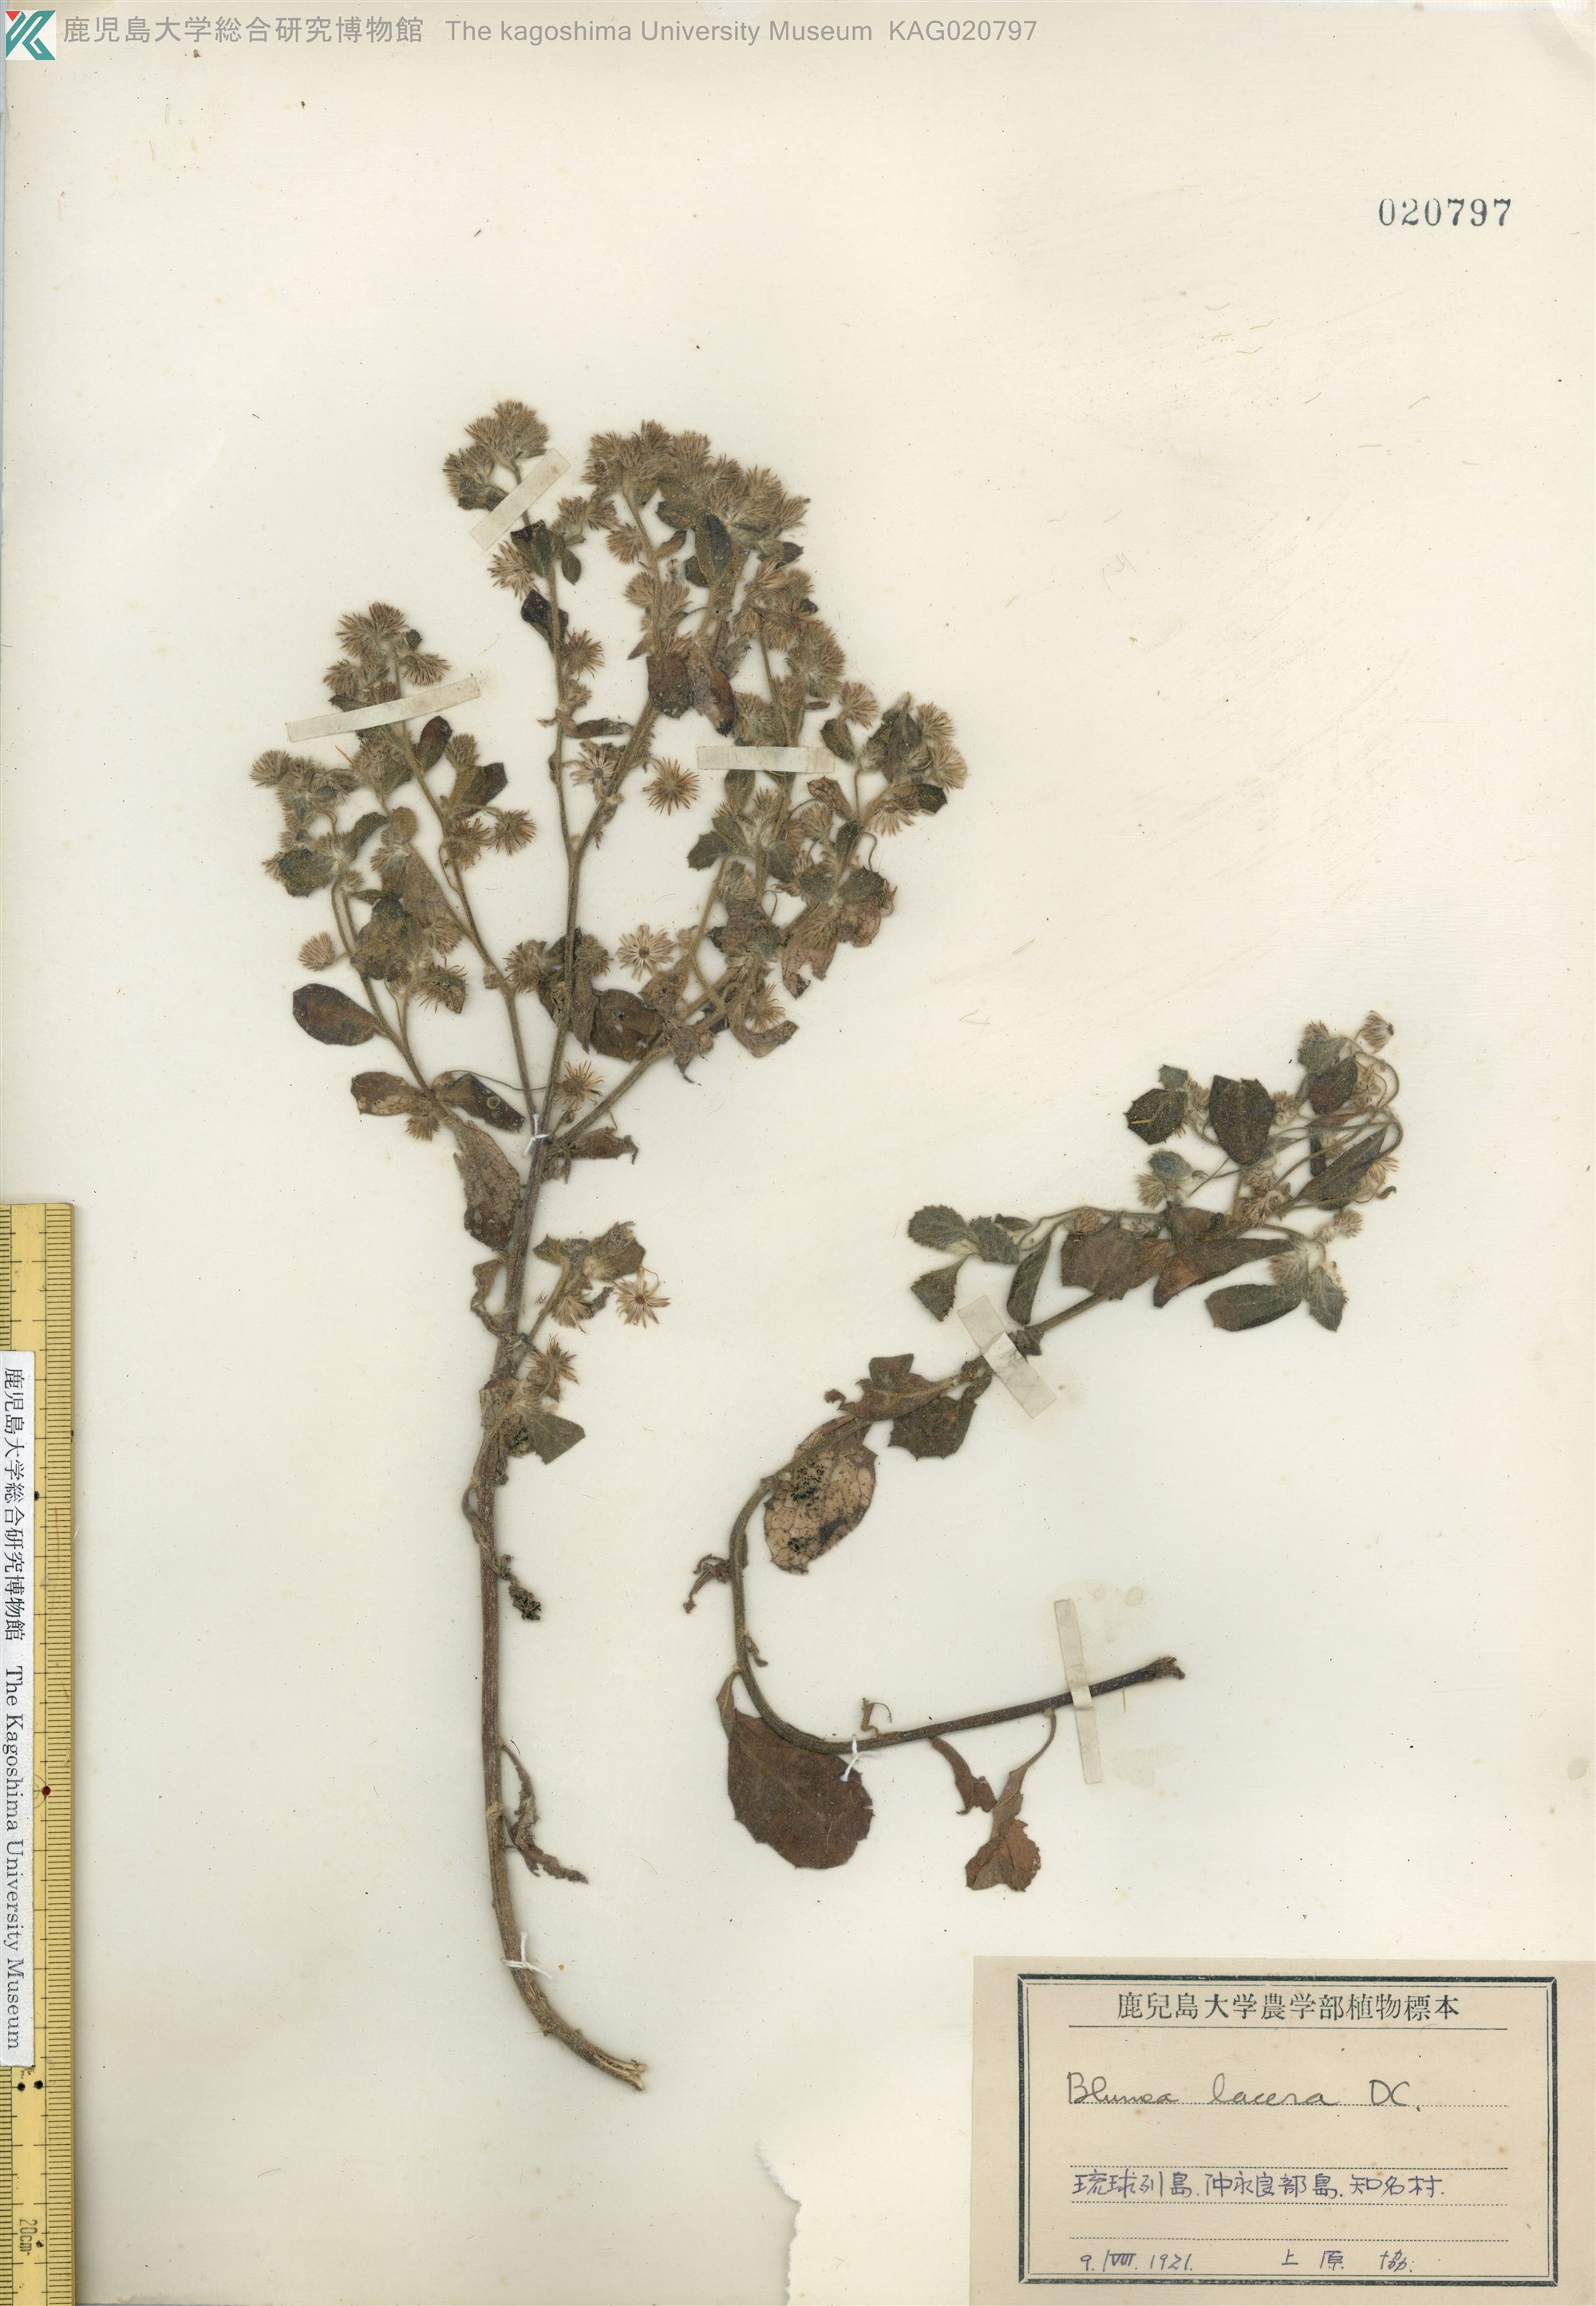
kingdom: Plantae
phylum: Tracheophyta
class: Magnoliopsida
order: Asterales
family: Asteraceae
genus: Blumea
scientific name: Blumea lacera
